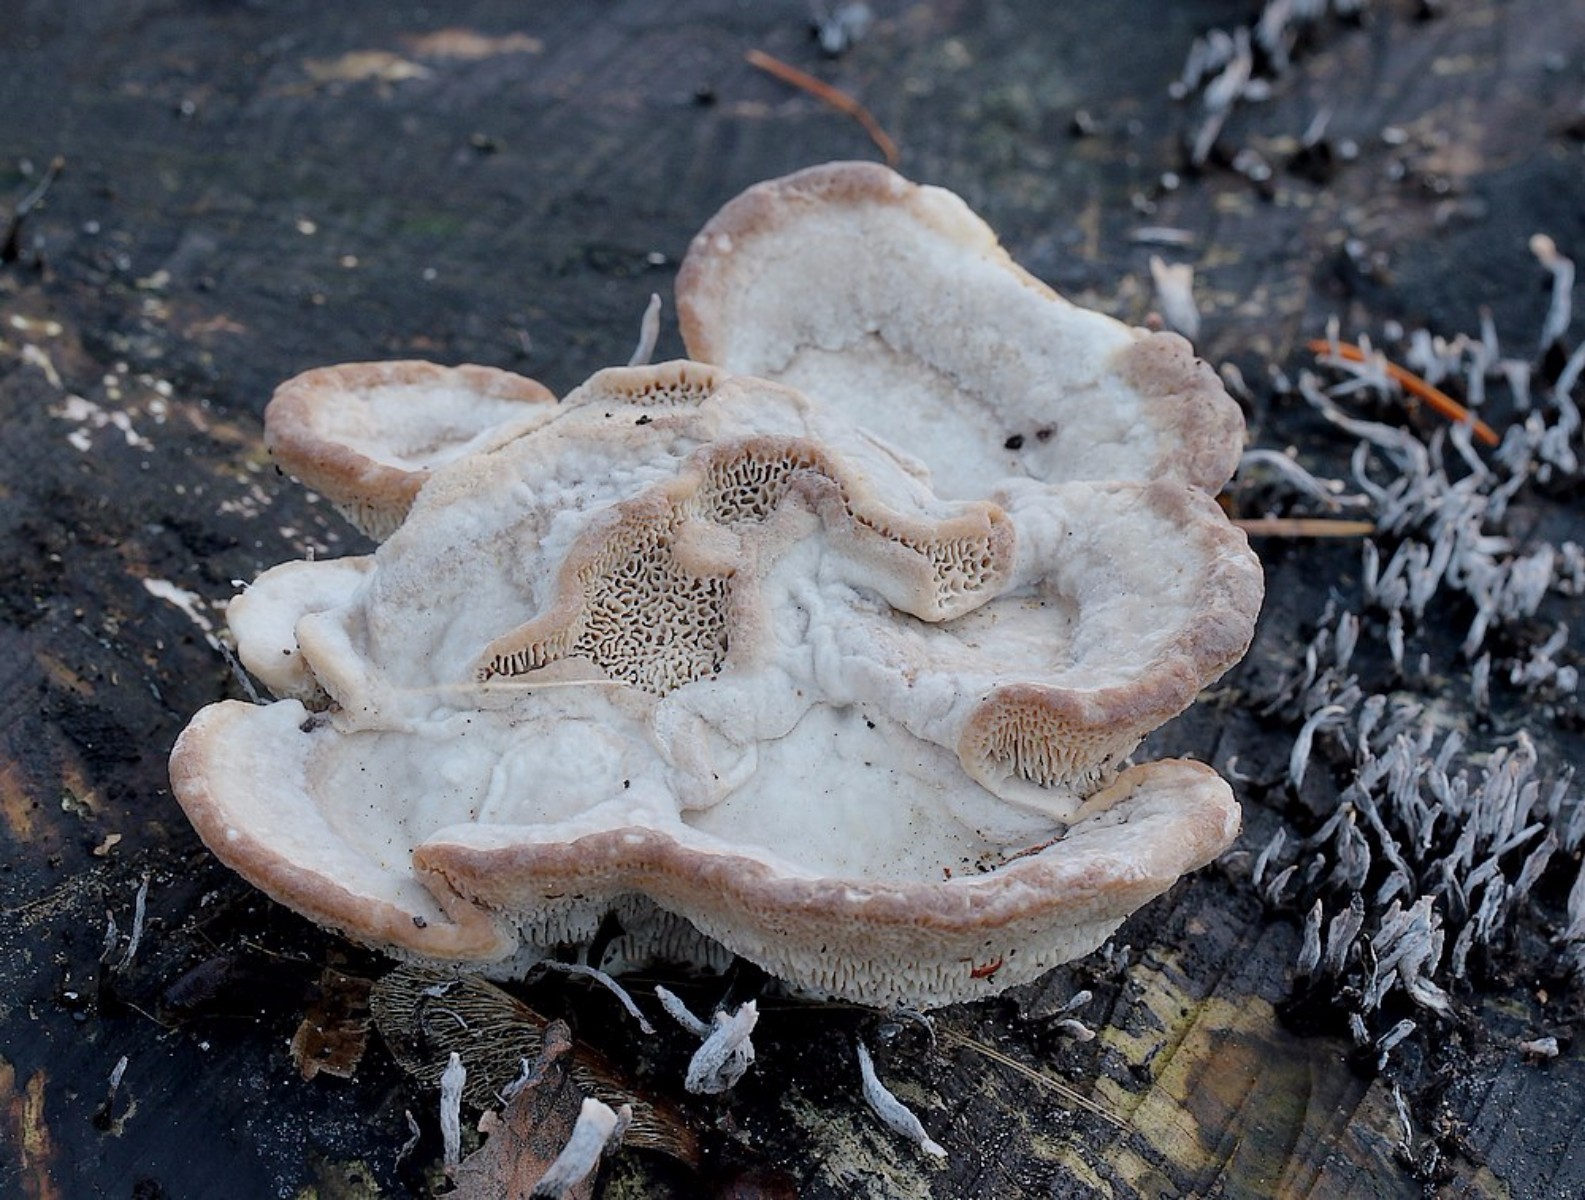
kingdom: Fungi
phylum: Basidiomycota
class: Agaricomycetes
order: Polyporales
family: Polyporaceae
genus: Trametes
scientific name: Trametes gibbosa
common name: puklet læderporesvamp
